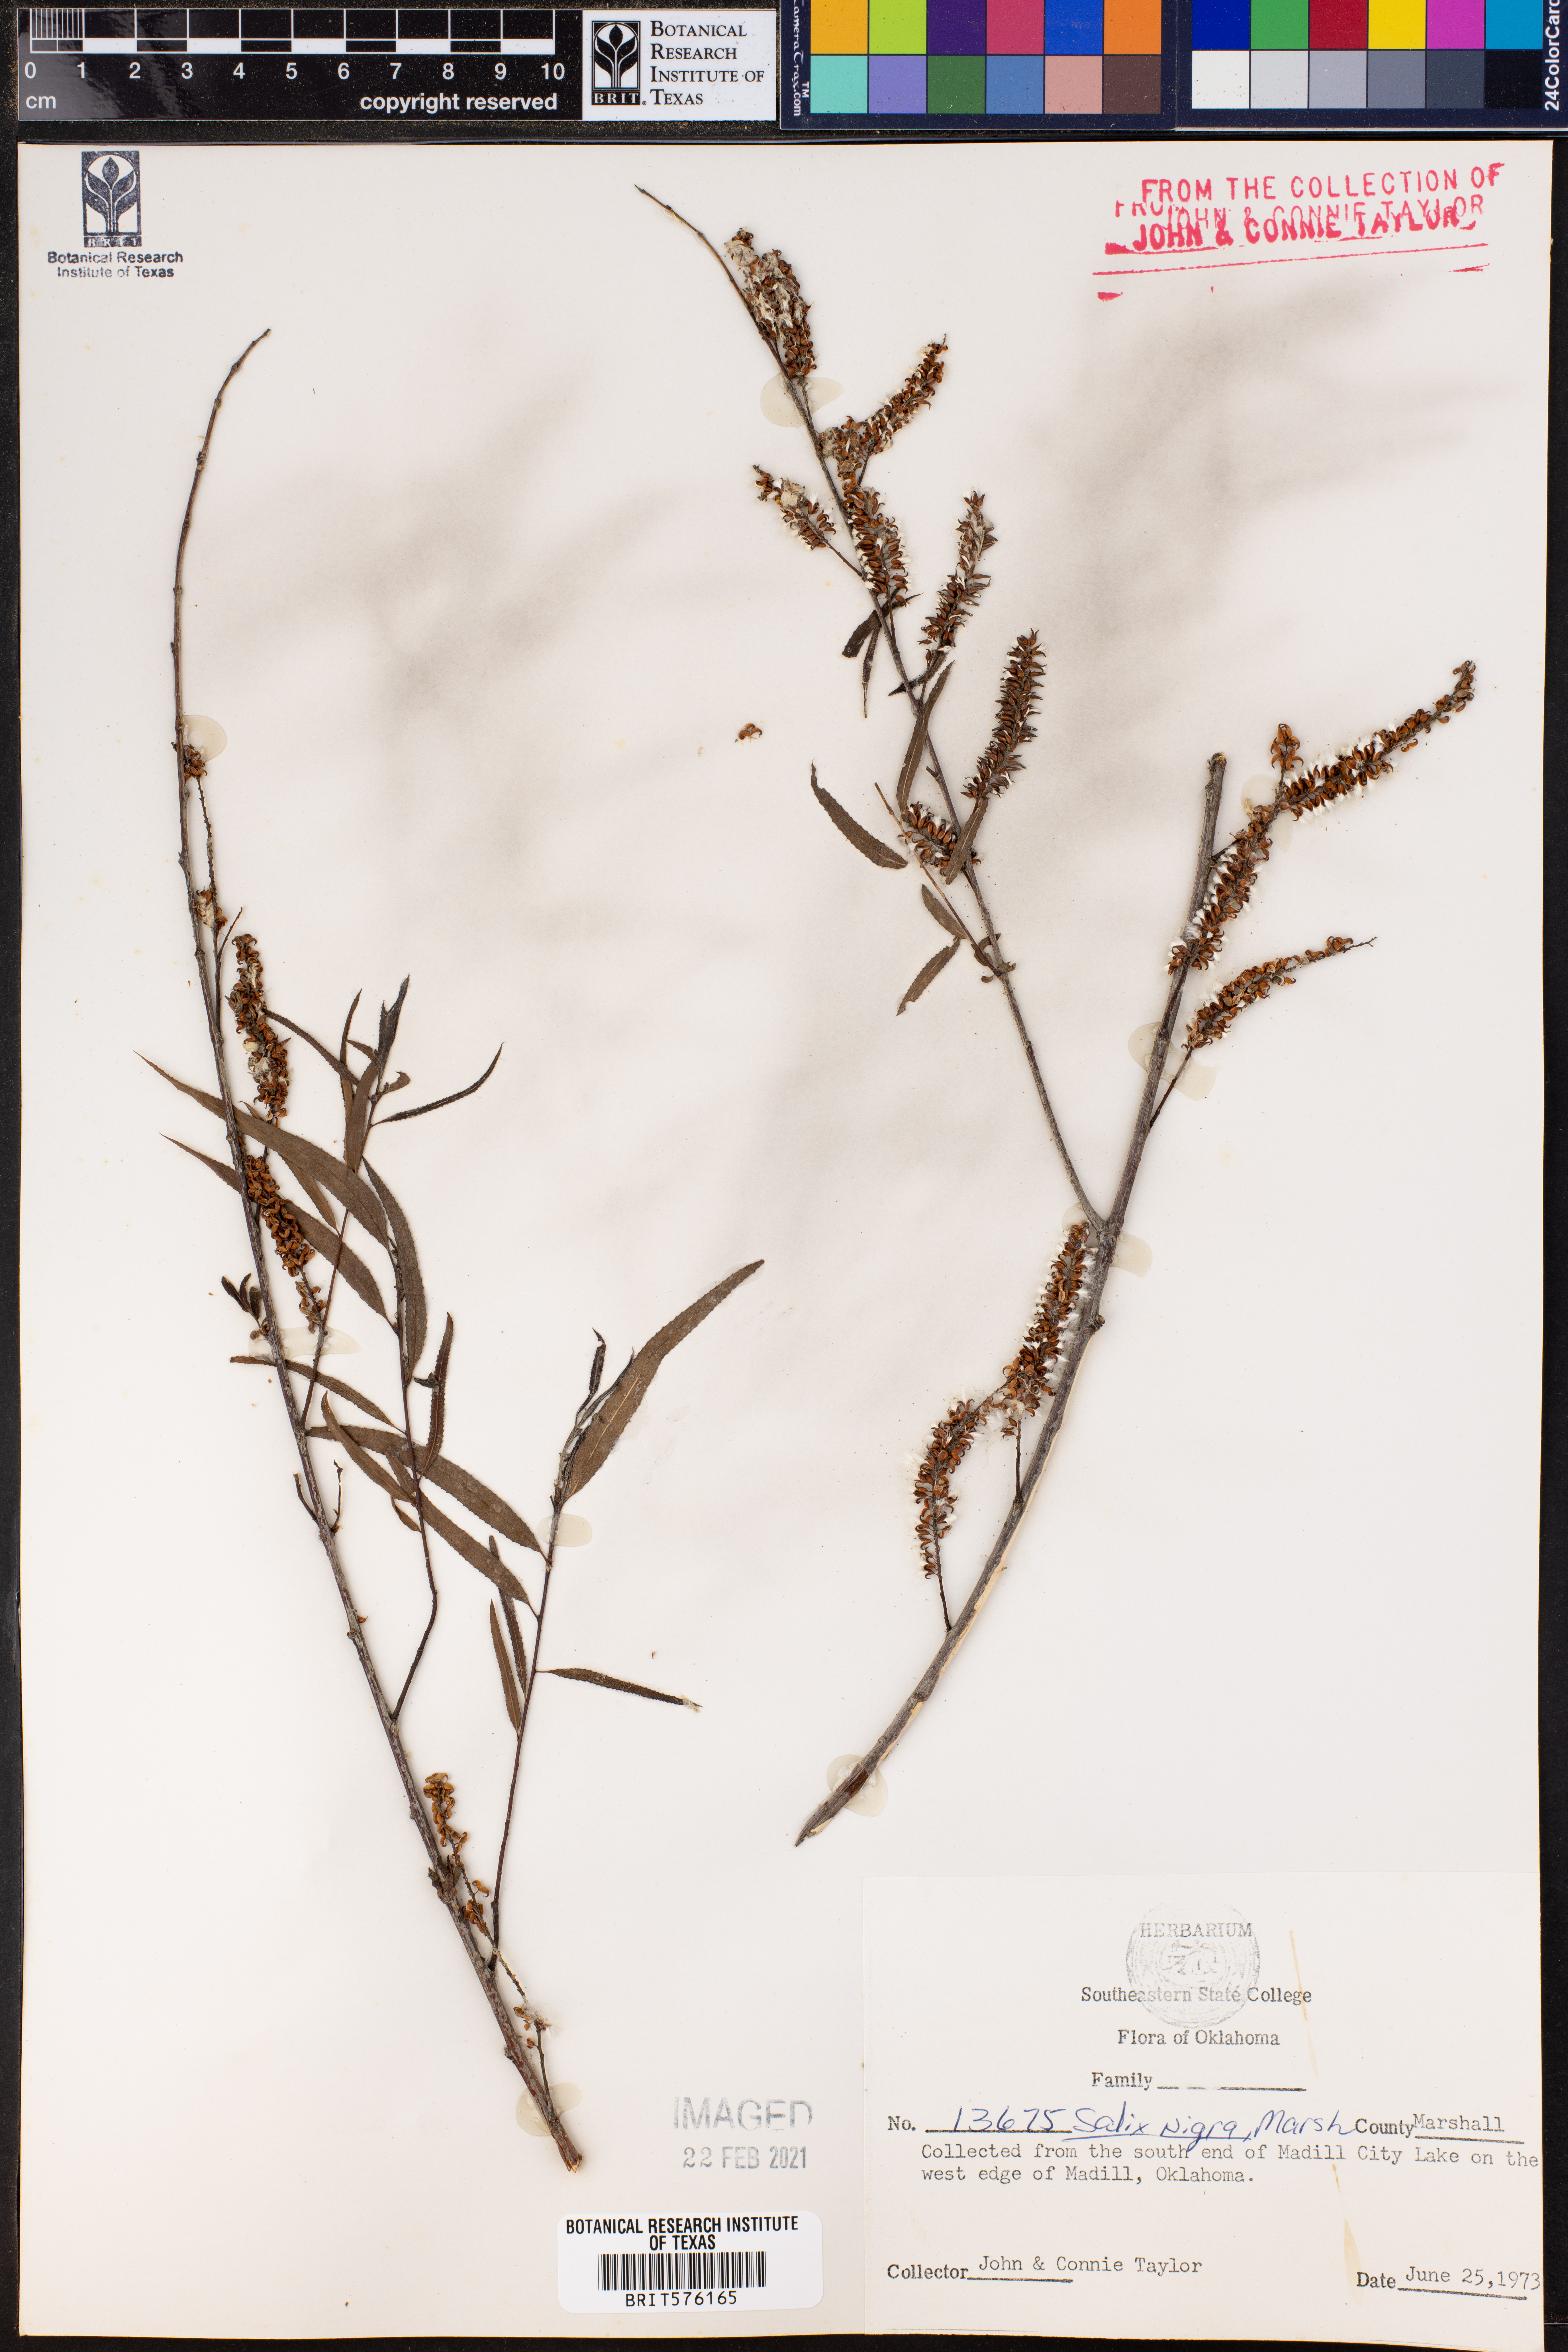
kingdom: Plantae
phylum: Tracheophyta
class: Magnoliopsida
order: Malpighiales
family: Salicaceae
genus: Salix
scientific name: Salix nigra
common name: Black willow
